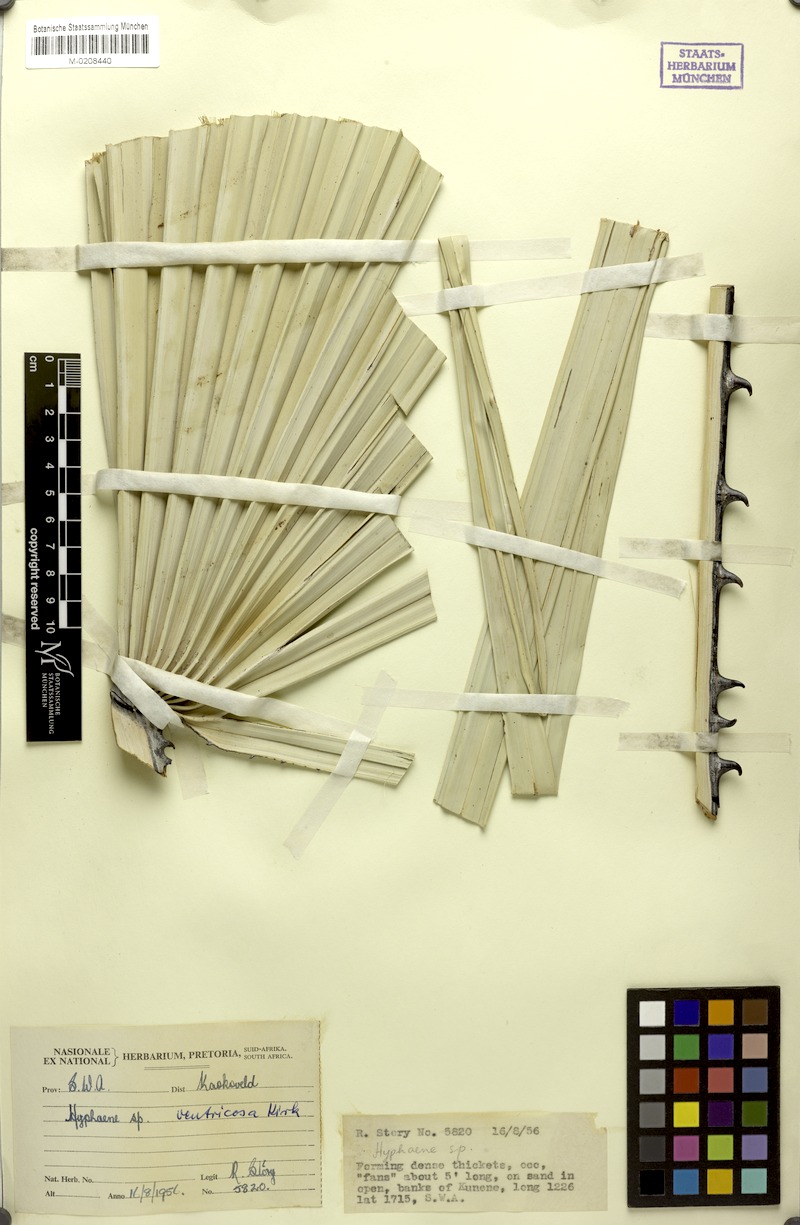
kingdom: Plantae
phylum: Tracheophyta
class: Liliopsida
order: Arecales
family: Arecaceae
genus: Hyphaene
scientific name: Hyphaene petersiana
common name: African ivory nut palm
